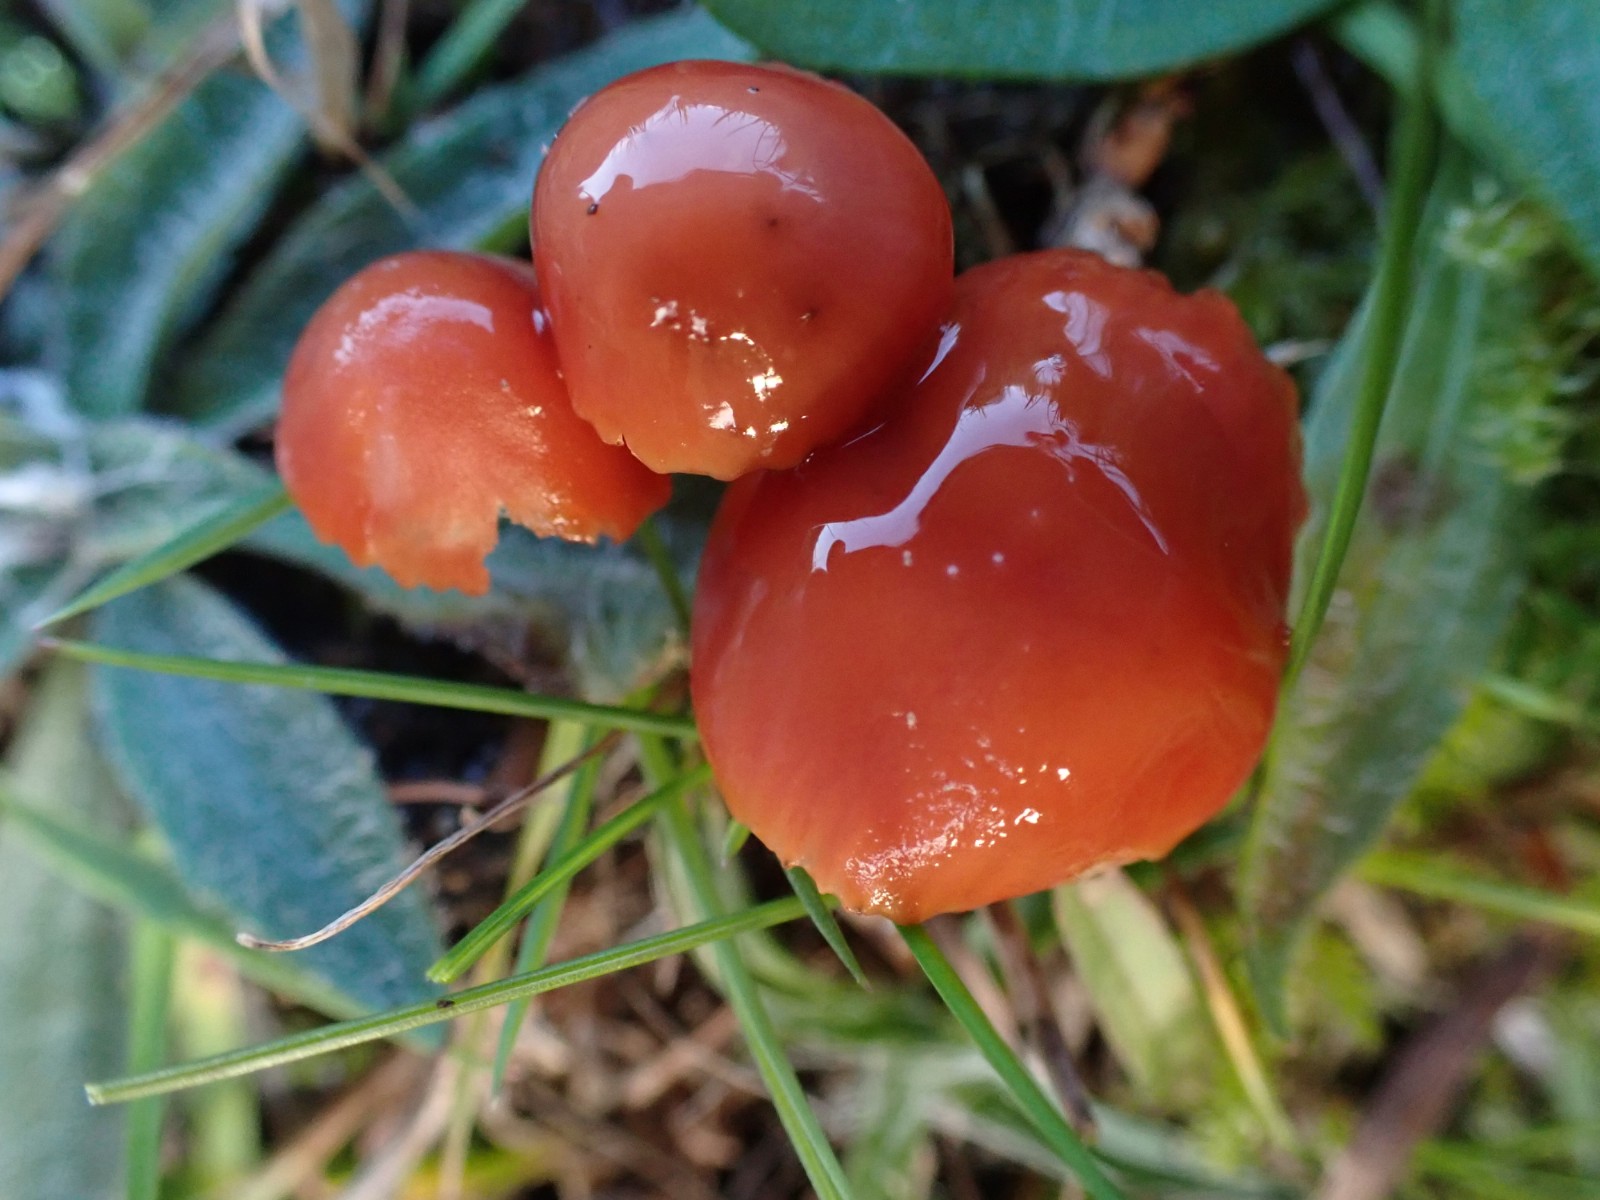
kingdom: Fungi
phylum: Basidiomycota
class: Agaricomycetes
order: Agaricales
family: Hygrophoraceae
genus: Gliophorus
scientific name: Gliophorus europerplexus
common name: Butterscotch waxcap
